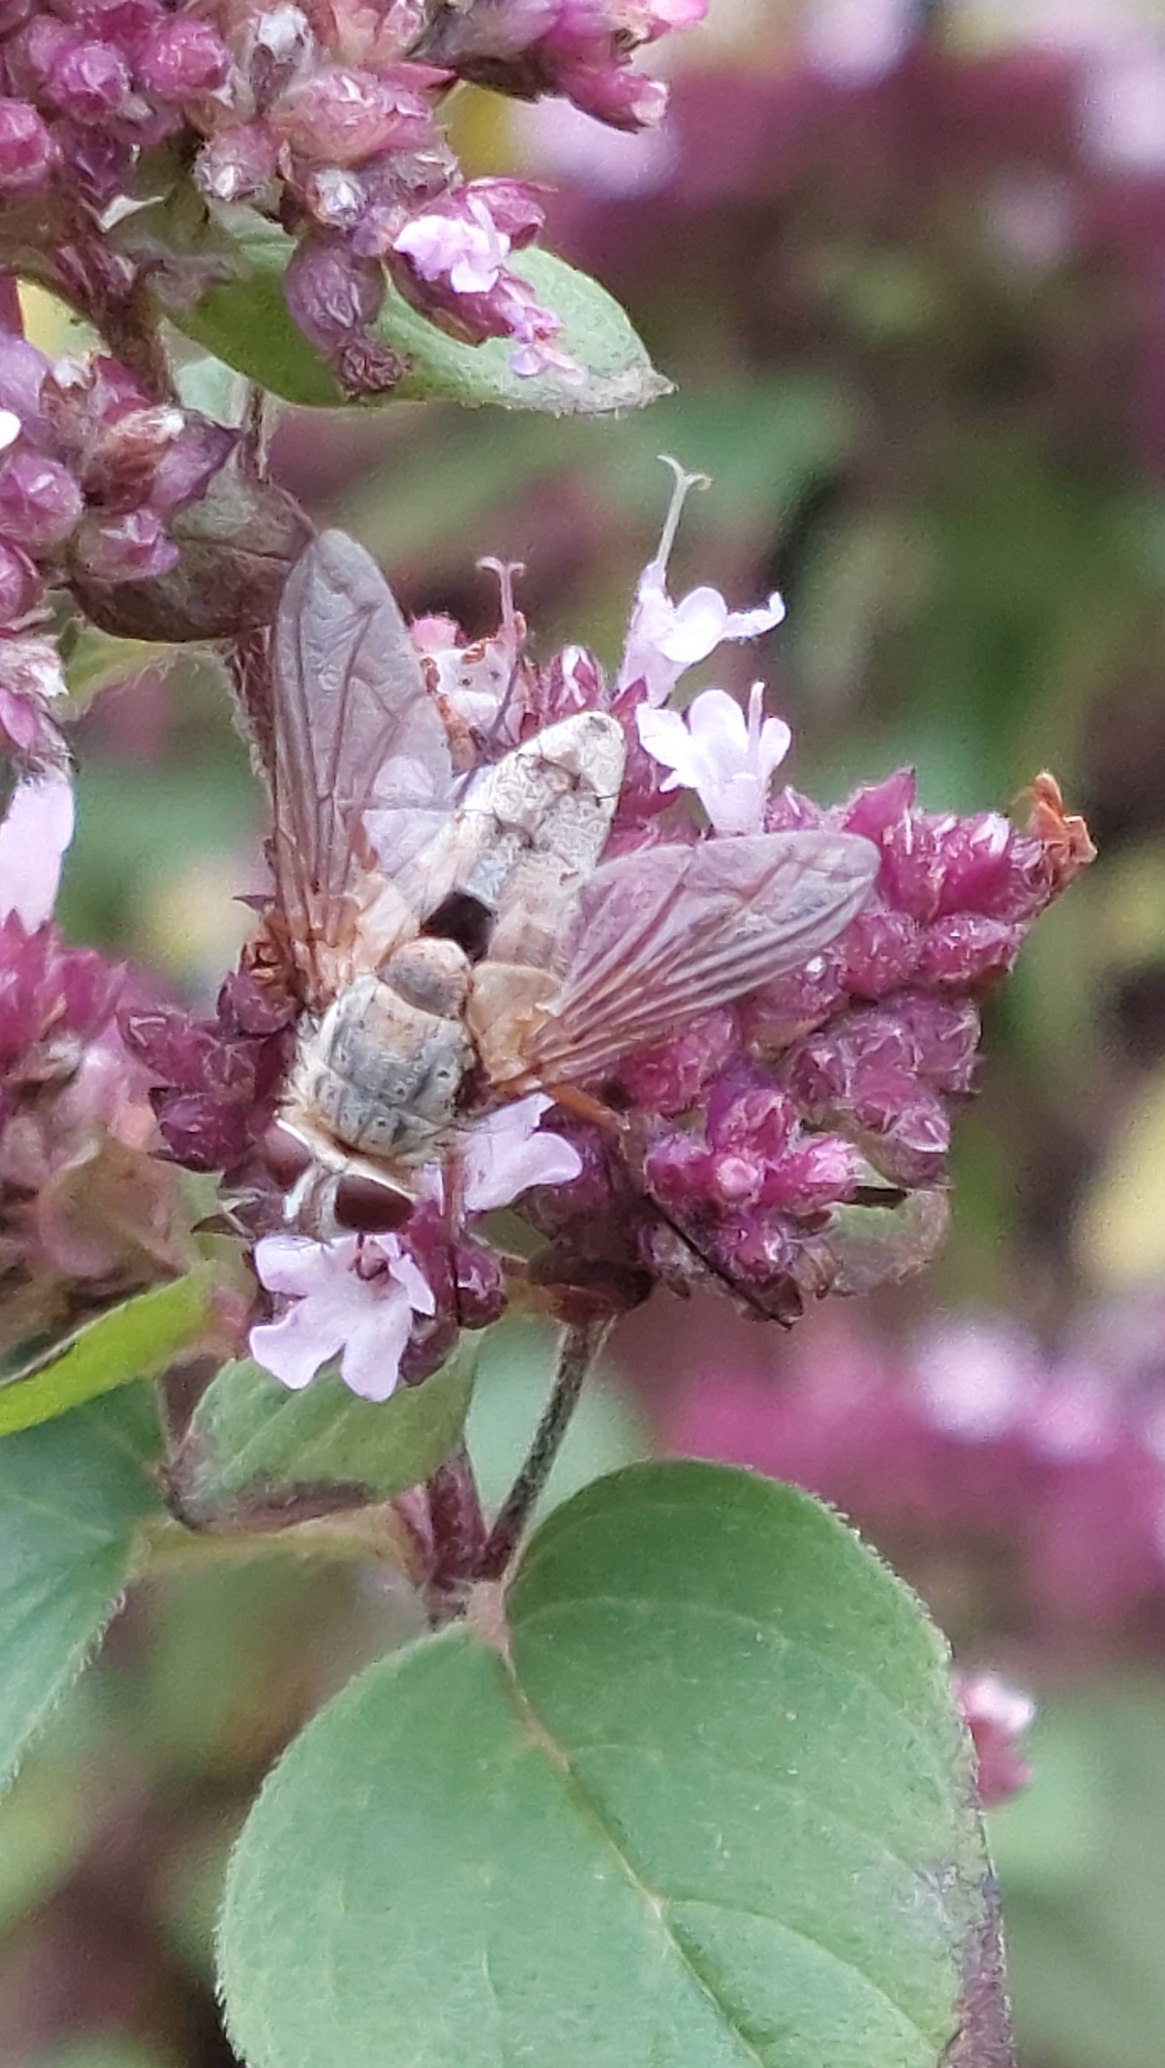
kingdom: Animalia
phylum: Arthropoda
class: Insecta
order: Diptera
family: Tachinidae
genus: Prosena
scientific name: Prosena siberita
